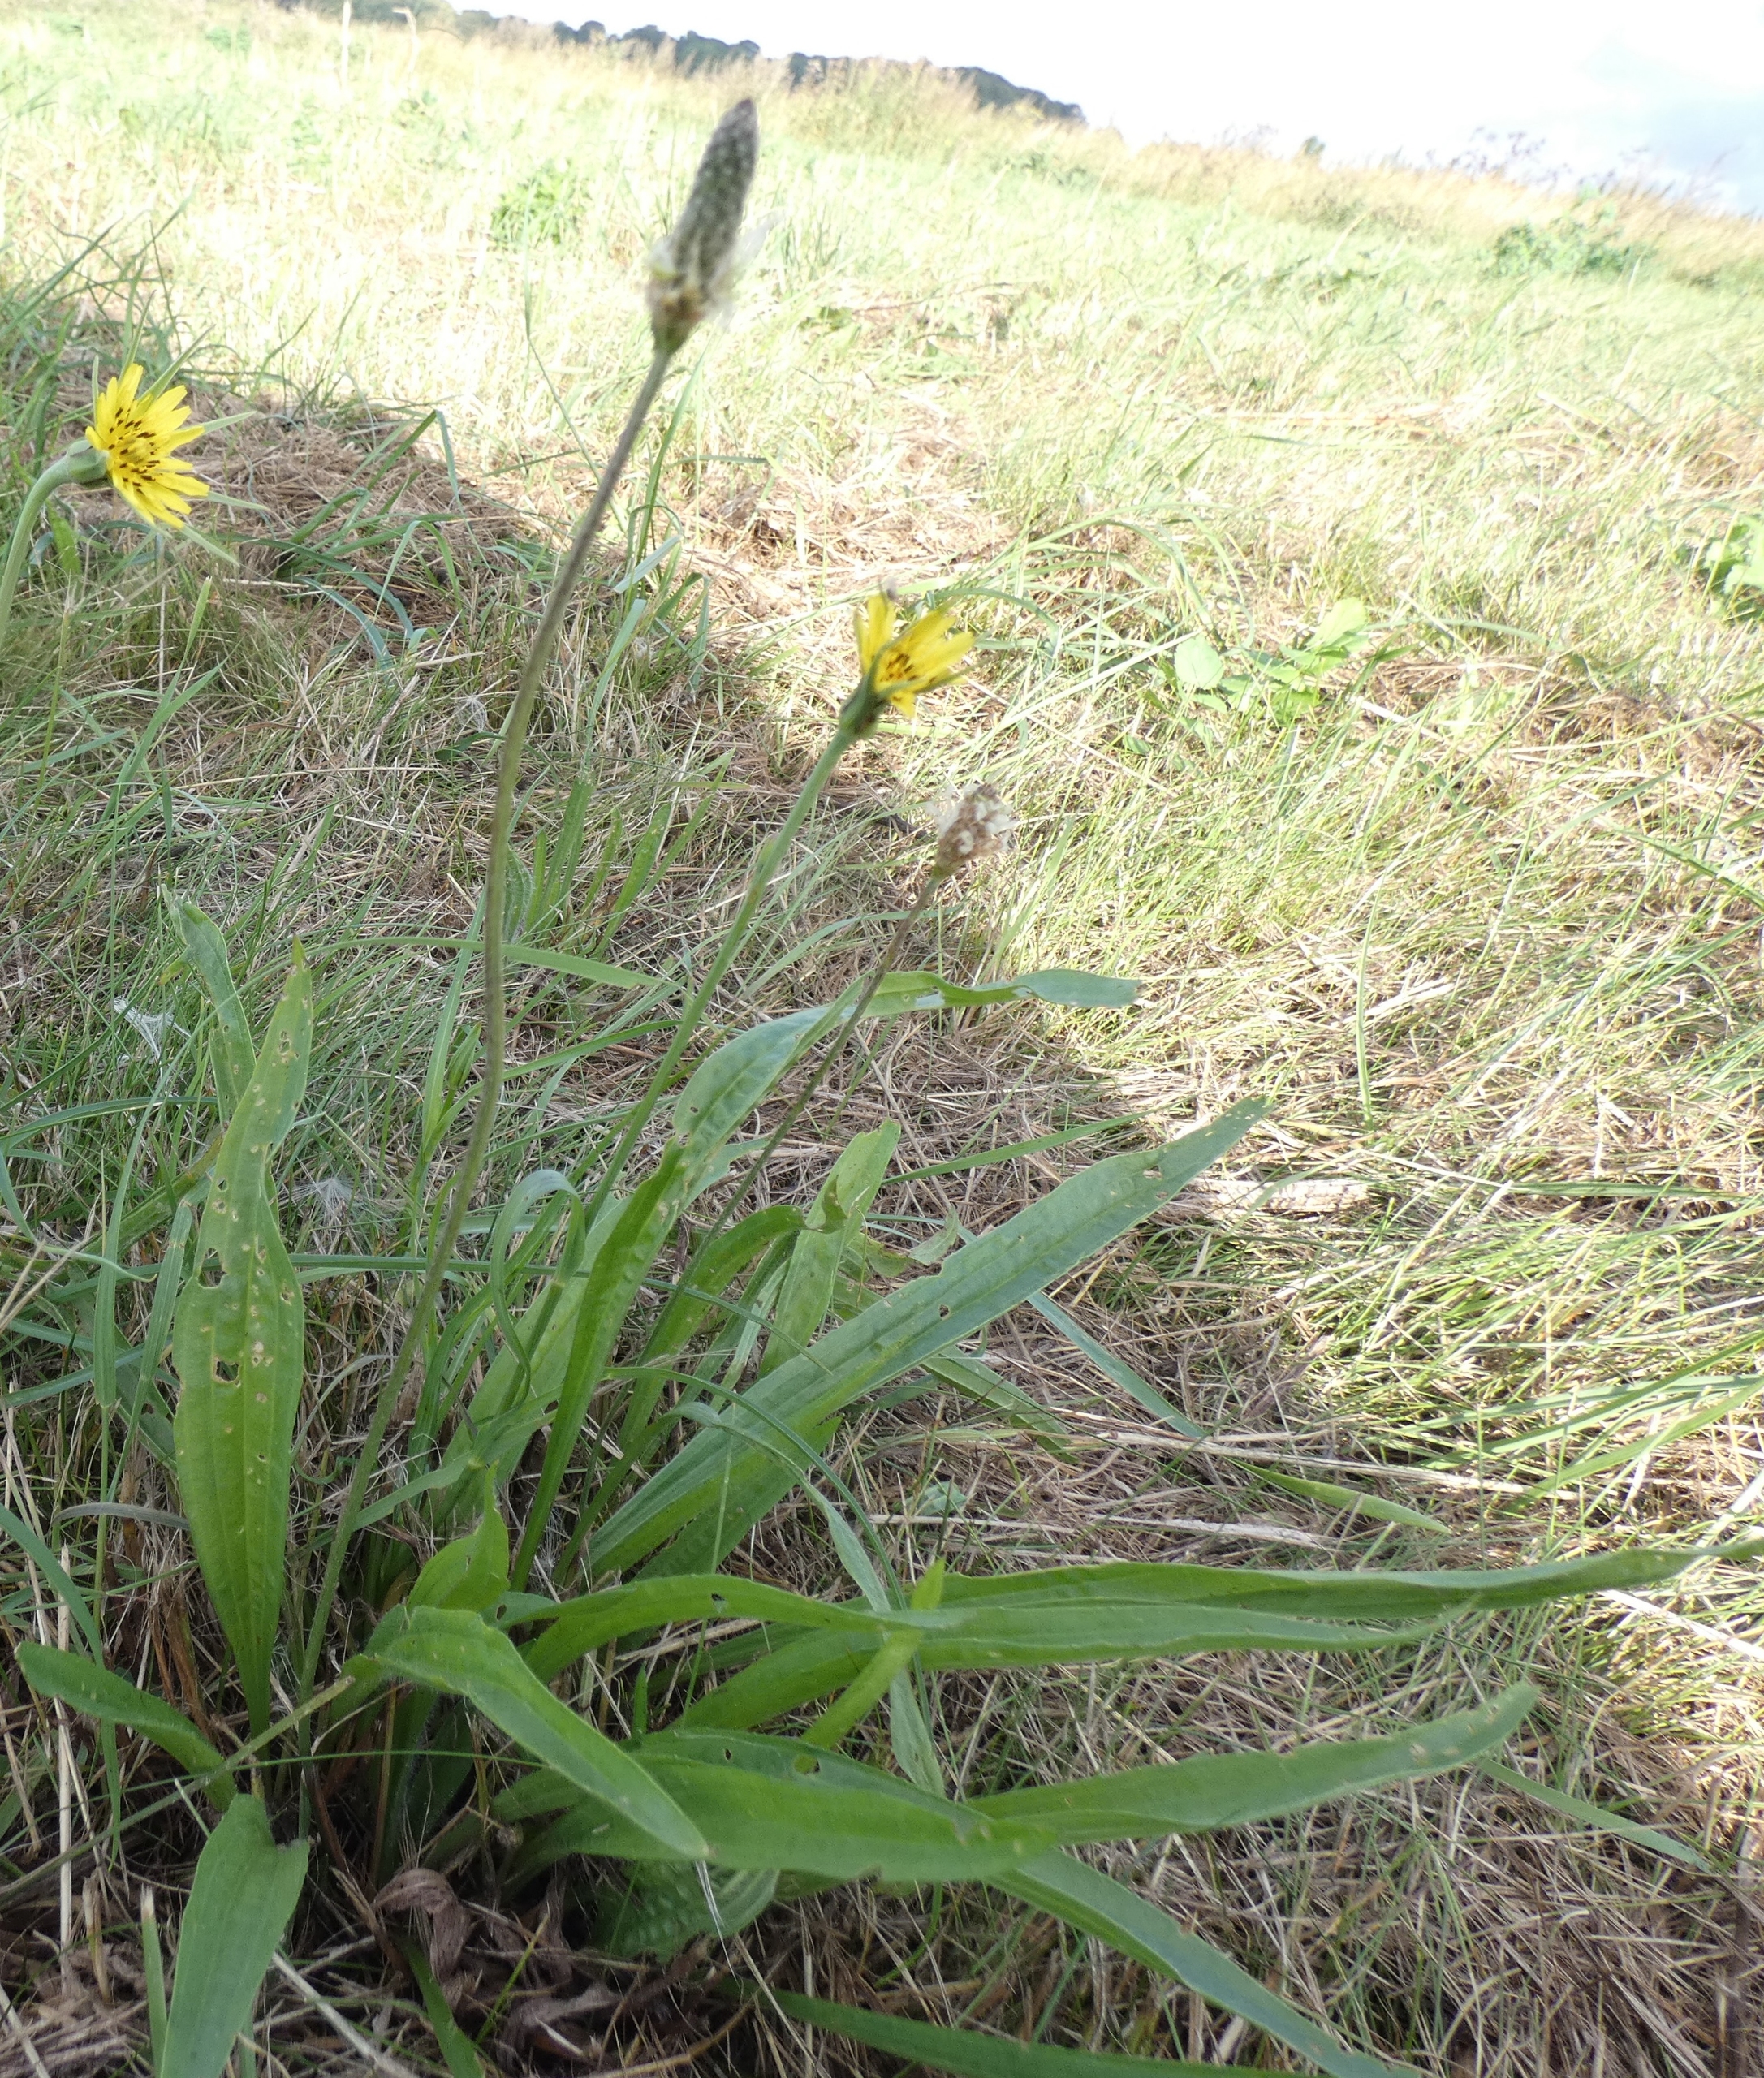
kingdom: Plantae
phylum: Tracheophyta
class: Magnoliopsida
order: Lamiales
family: Plantaginaceae
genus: Plantago
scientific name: Plantago lanceolata
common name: Lancet-vejbred
